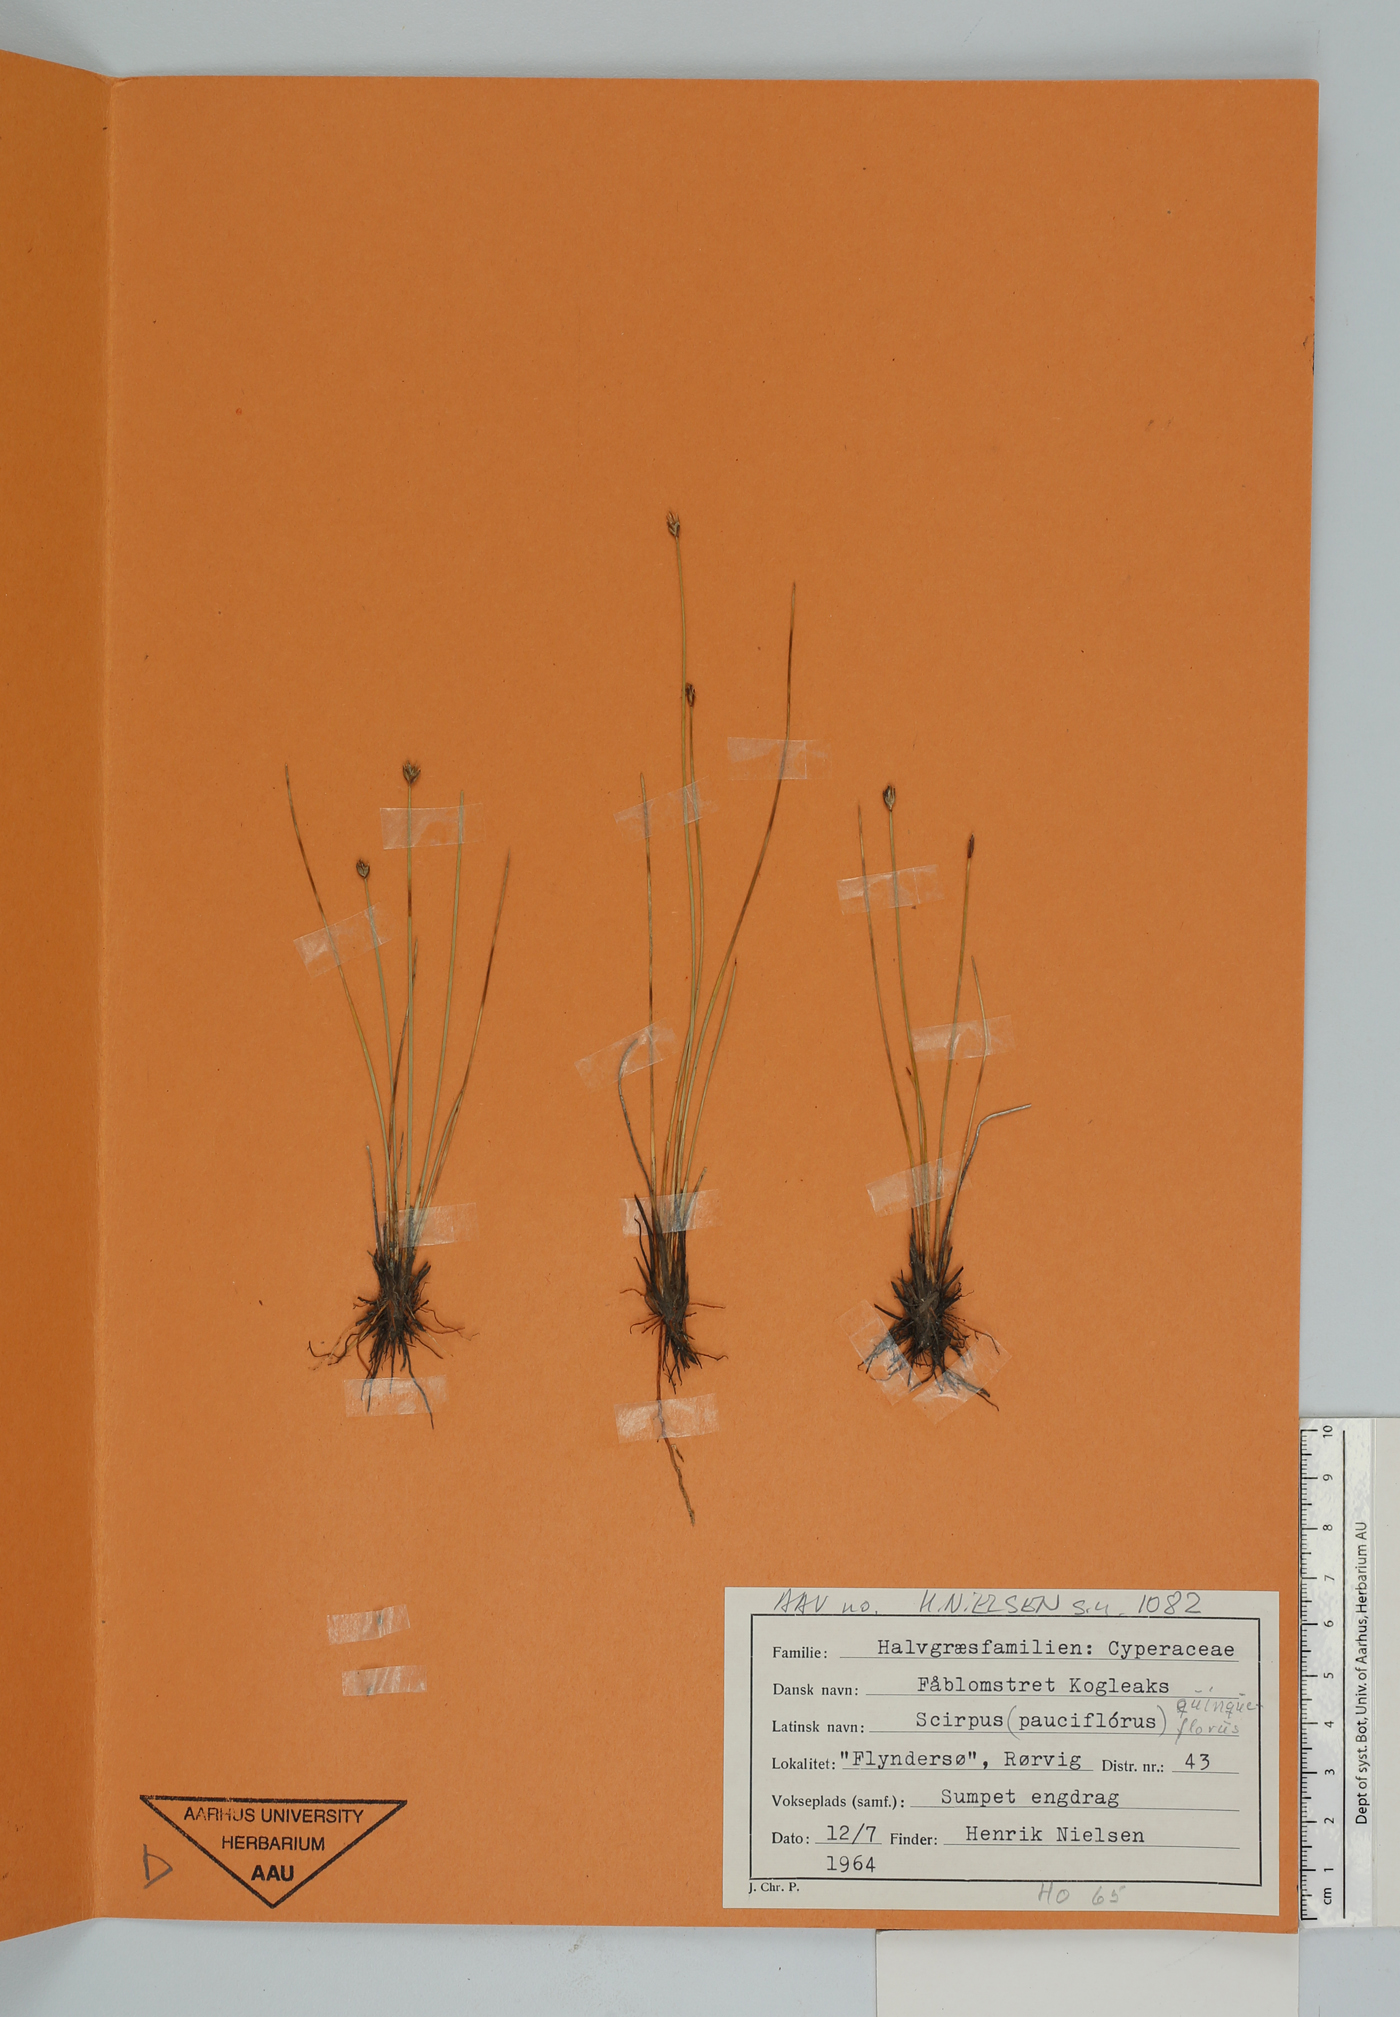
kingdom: Plantae
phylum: Tracheophyta
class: Liliopsida
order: Poales
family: Cyperaceae
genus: Eleocharis
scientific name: Eleocharis quinqueflora
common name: Few-flowered spike-rush
